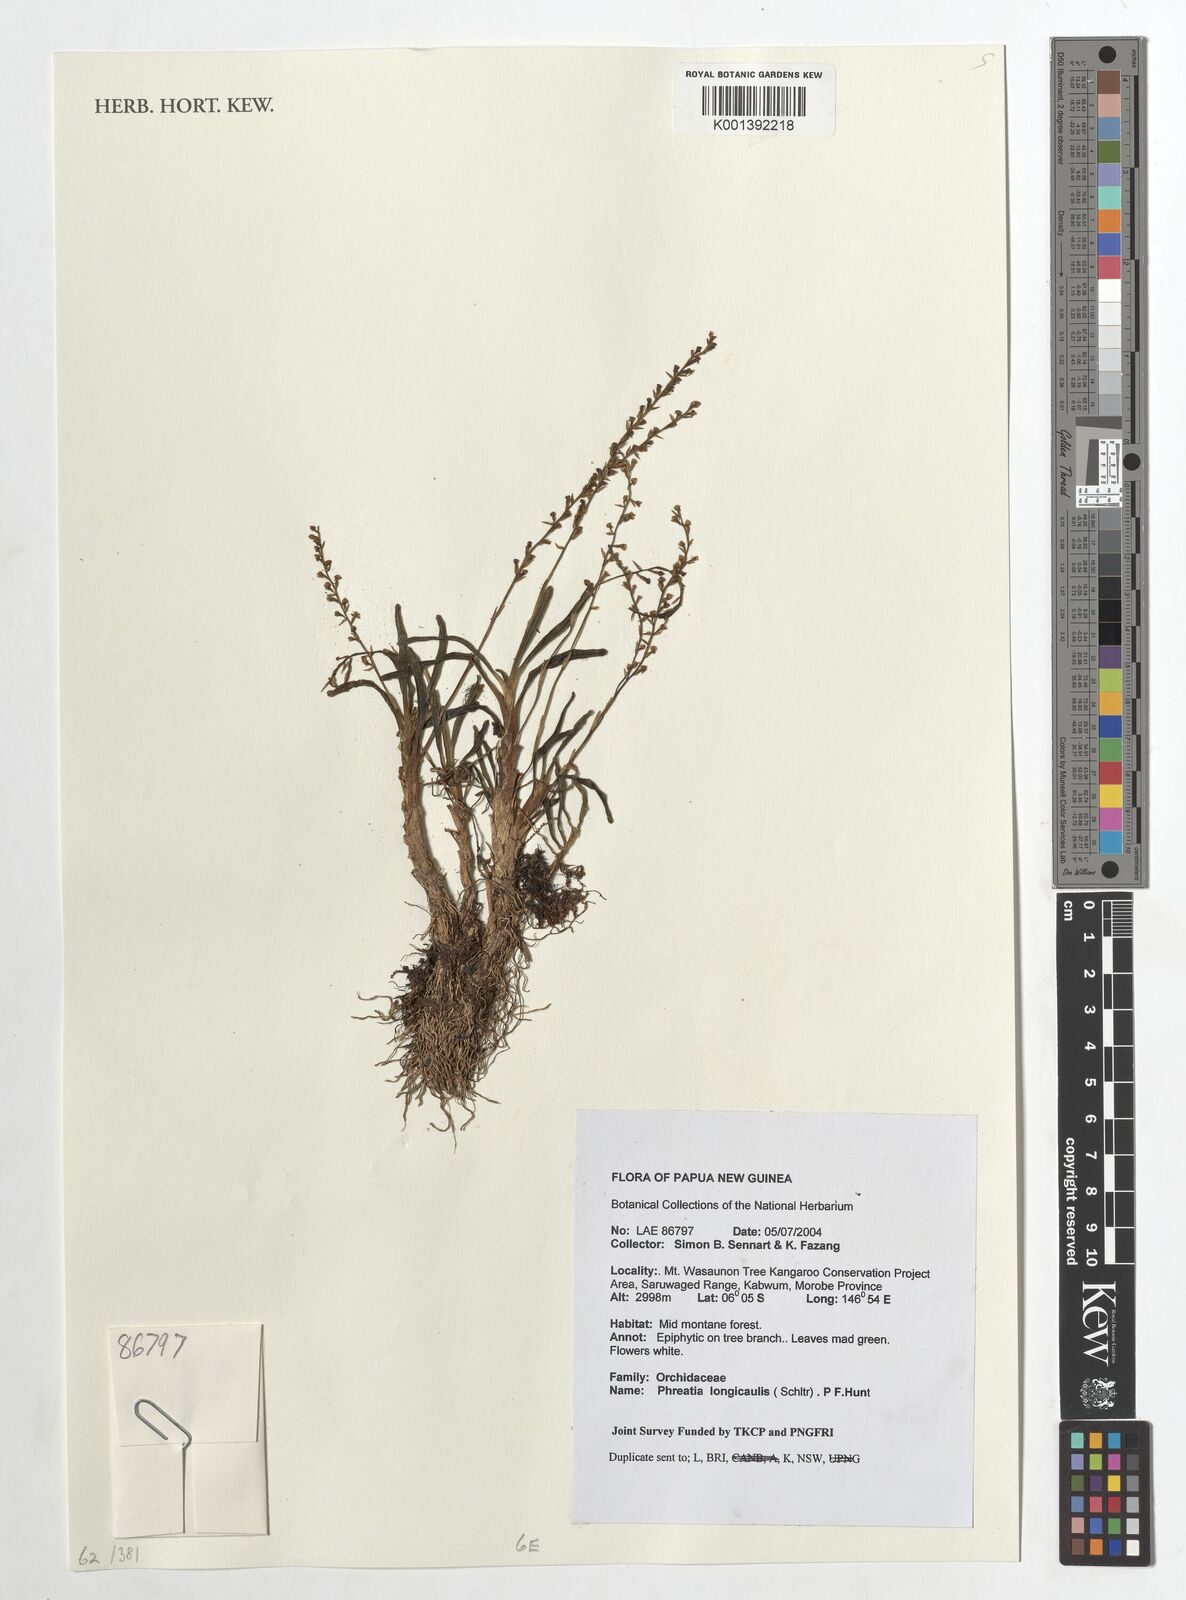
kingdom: Plantae
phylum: Tracheophyta
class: Liliopsida
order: Asparagales
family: Orchidaceae
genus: Phreatia
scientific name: Phreatia longicaulis
